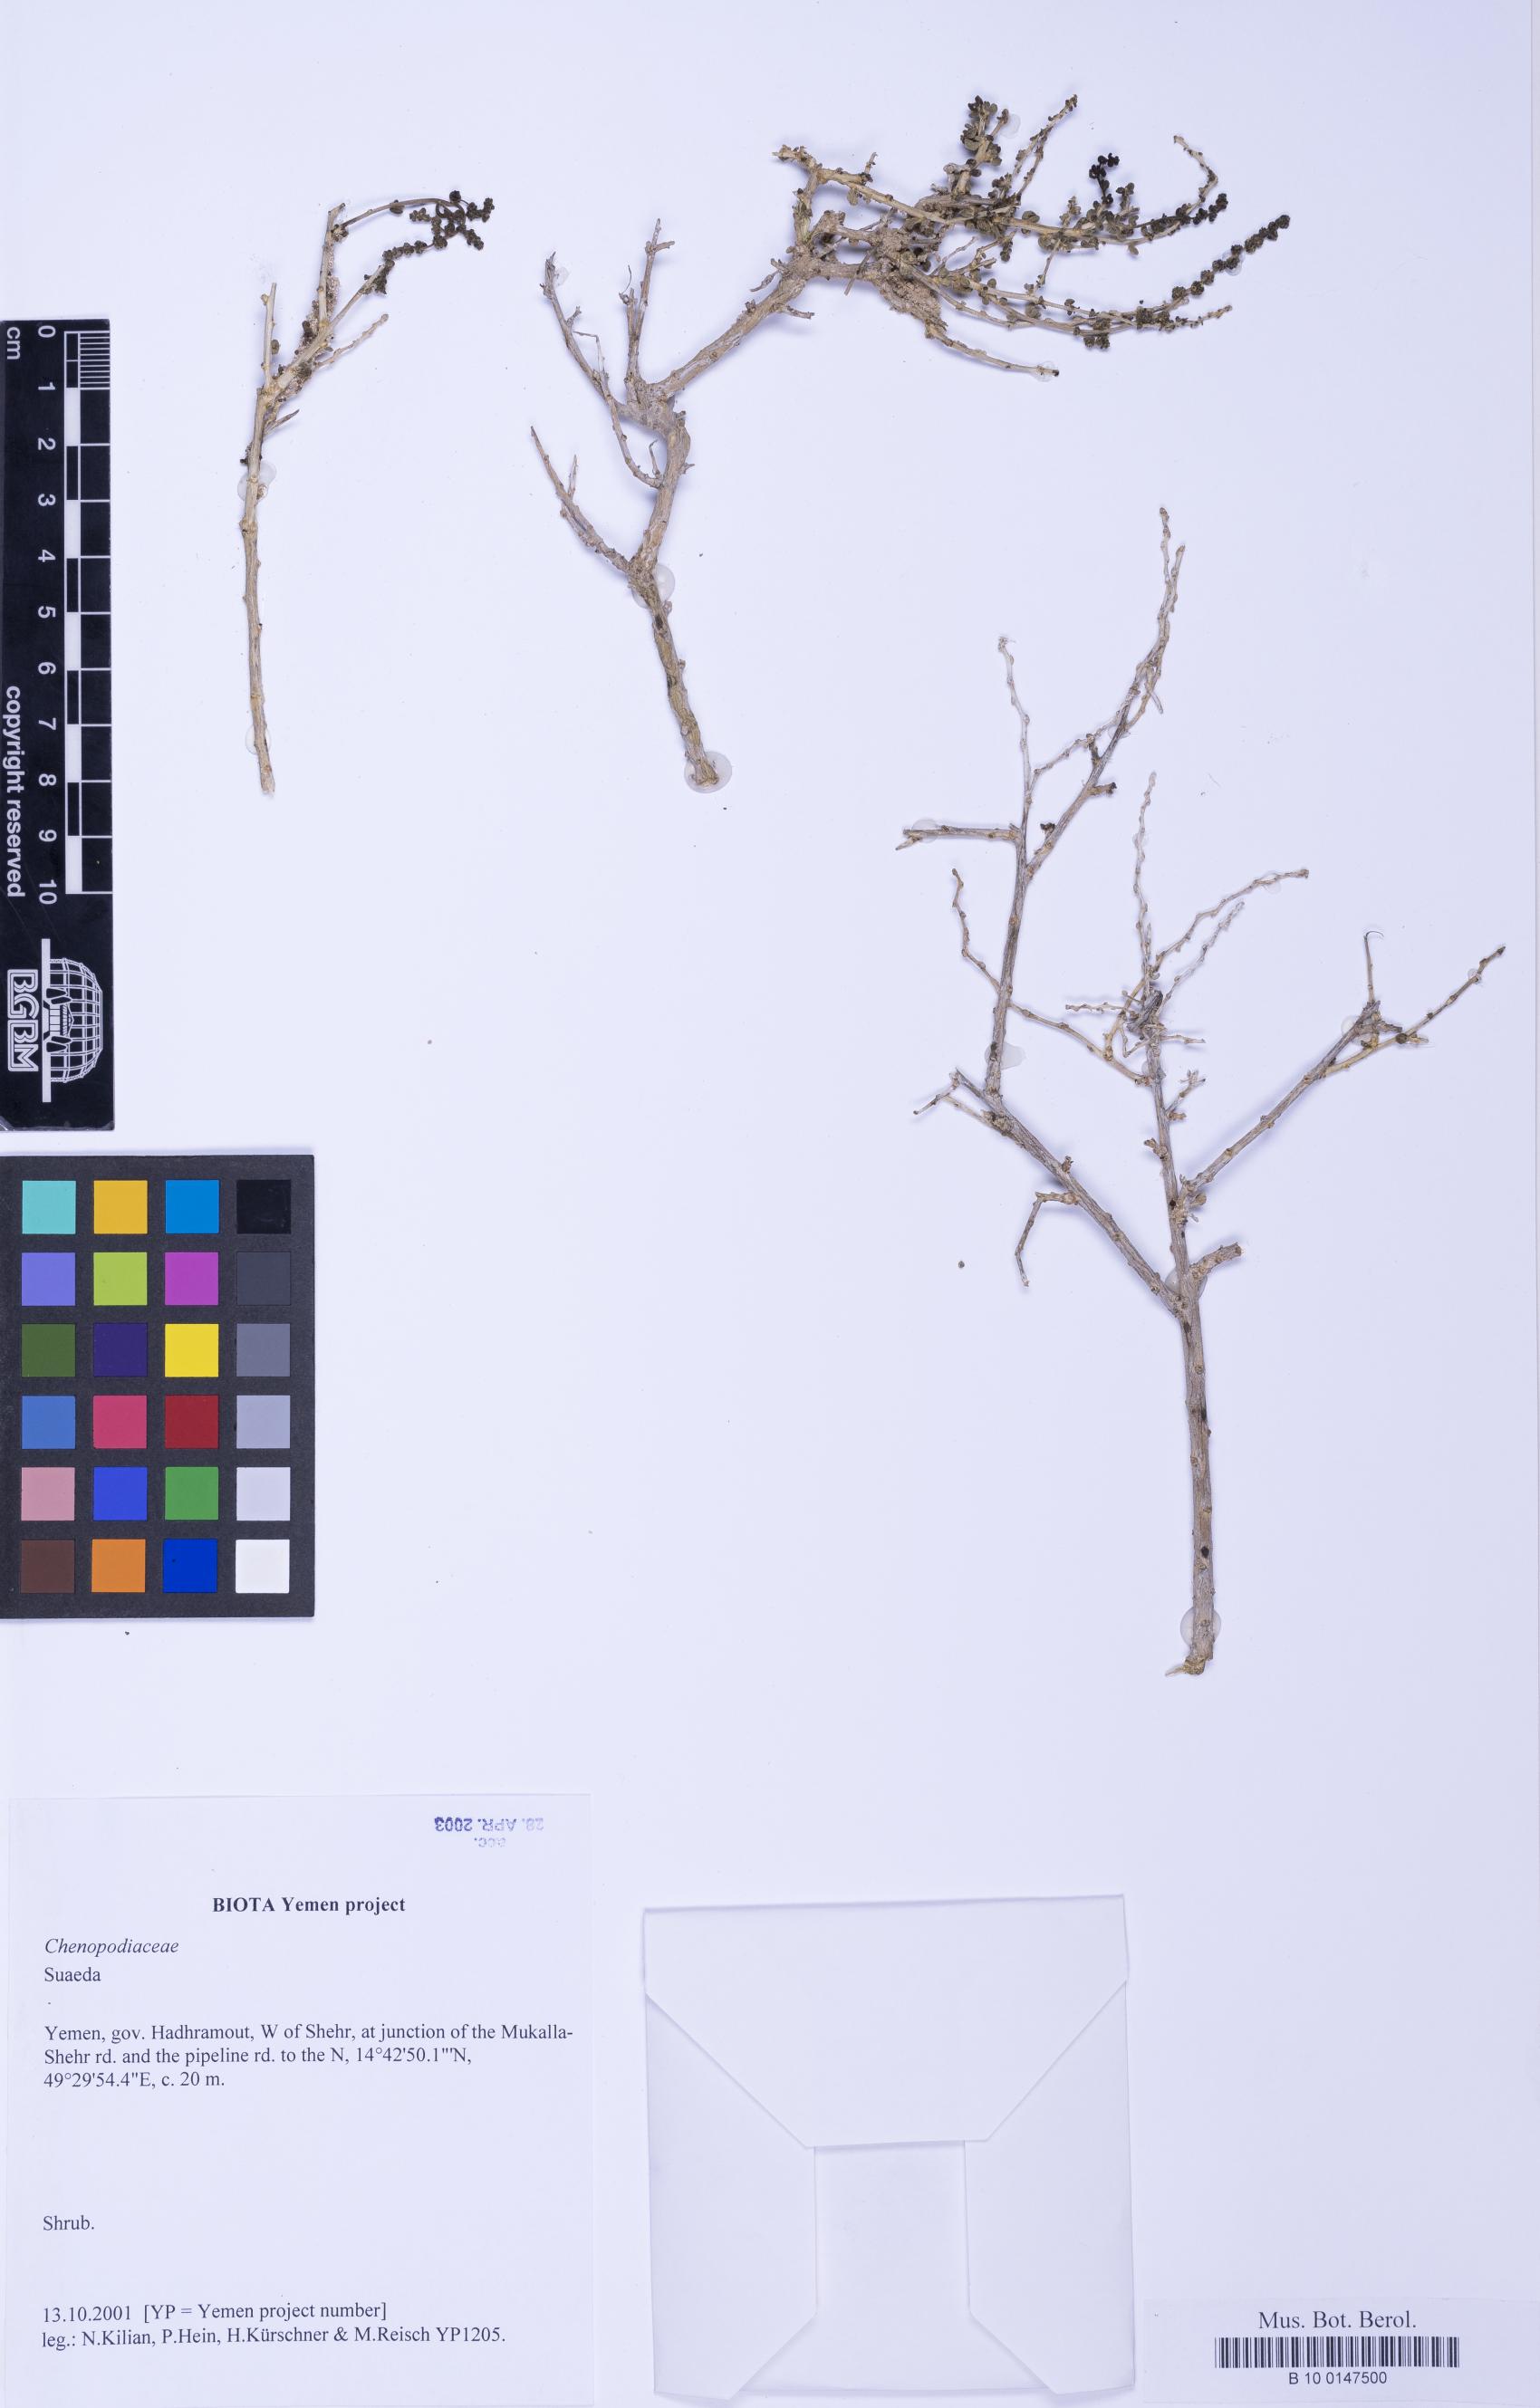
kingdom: Plantae
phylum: Tracheophyta
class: Magnoliopsida
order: Caryophyllales
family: Amaranthaceae
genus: Suaeda
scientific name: Suaeda
